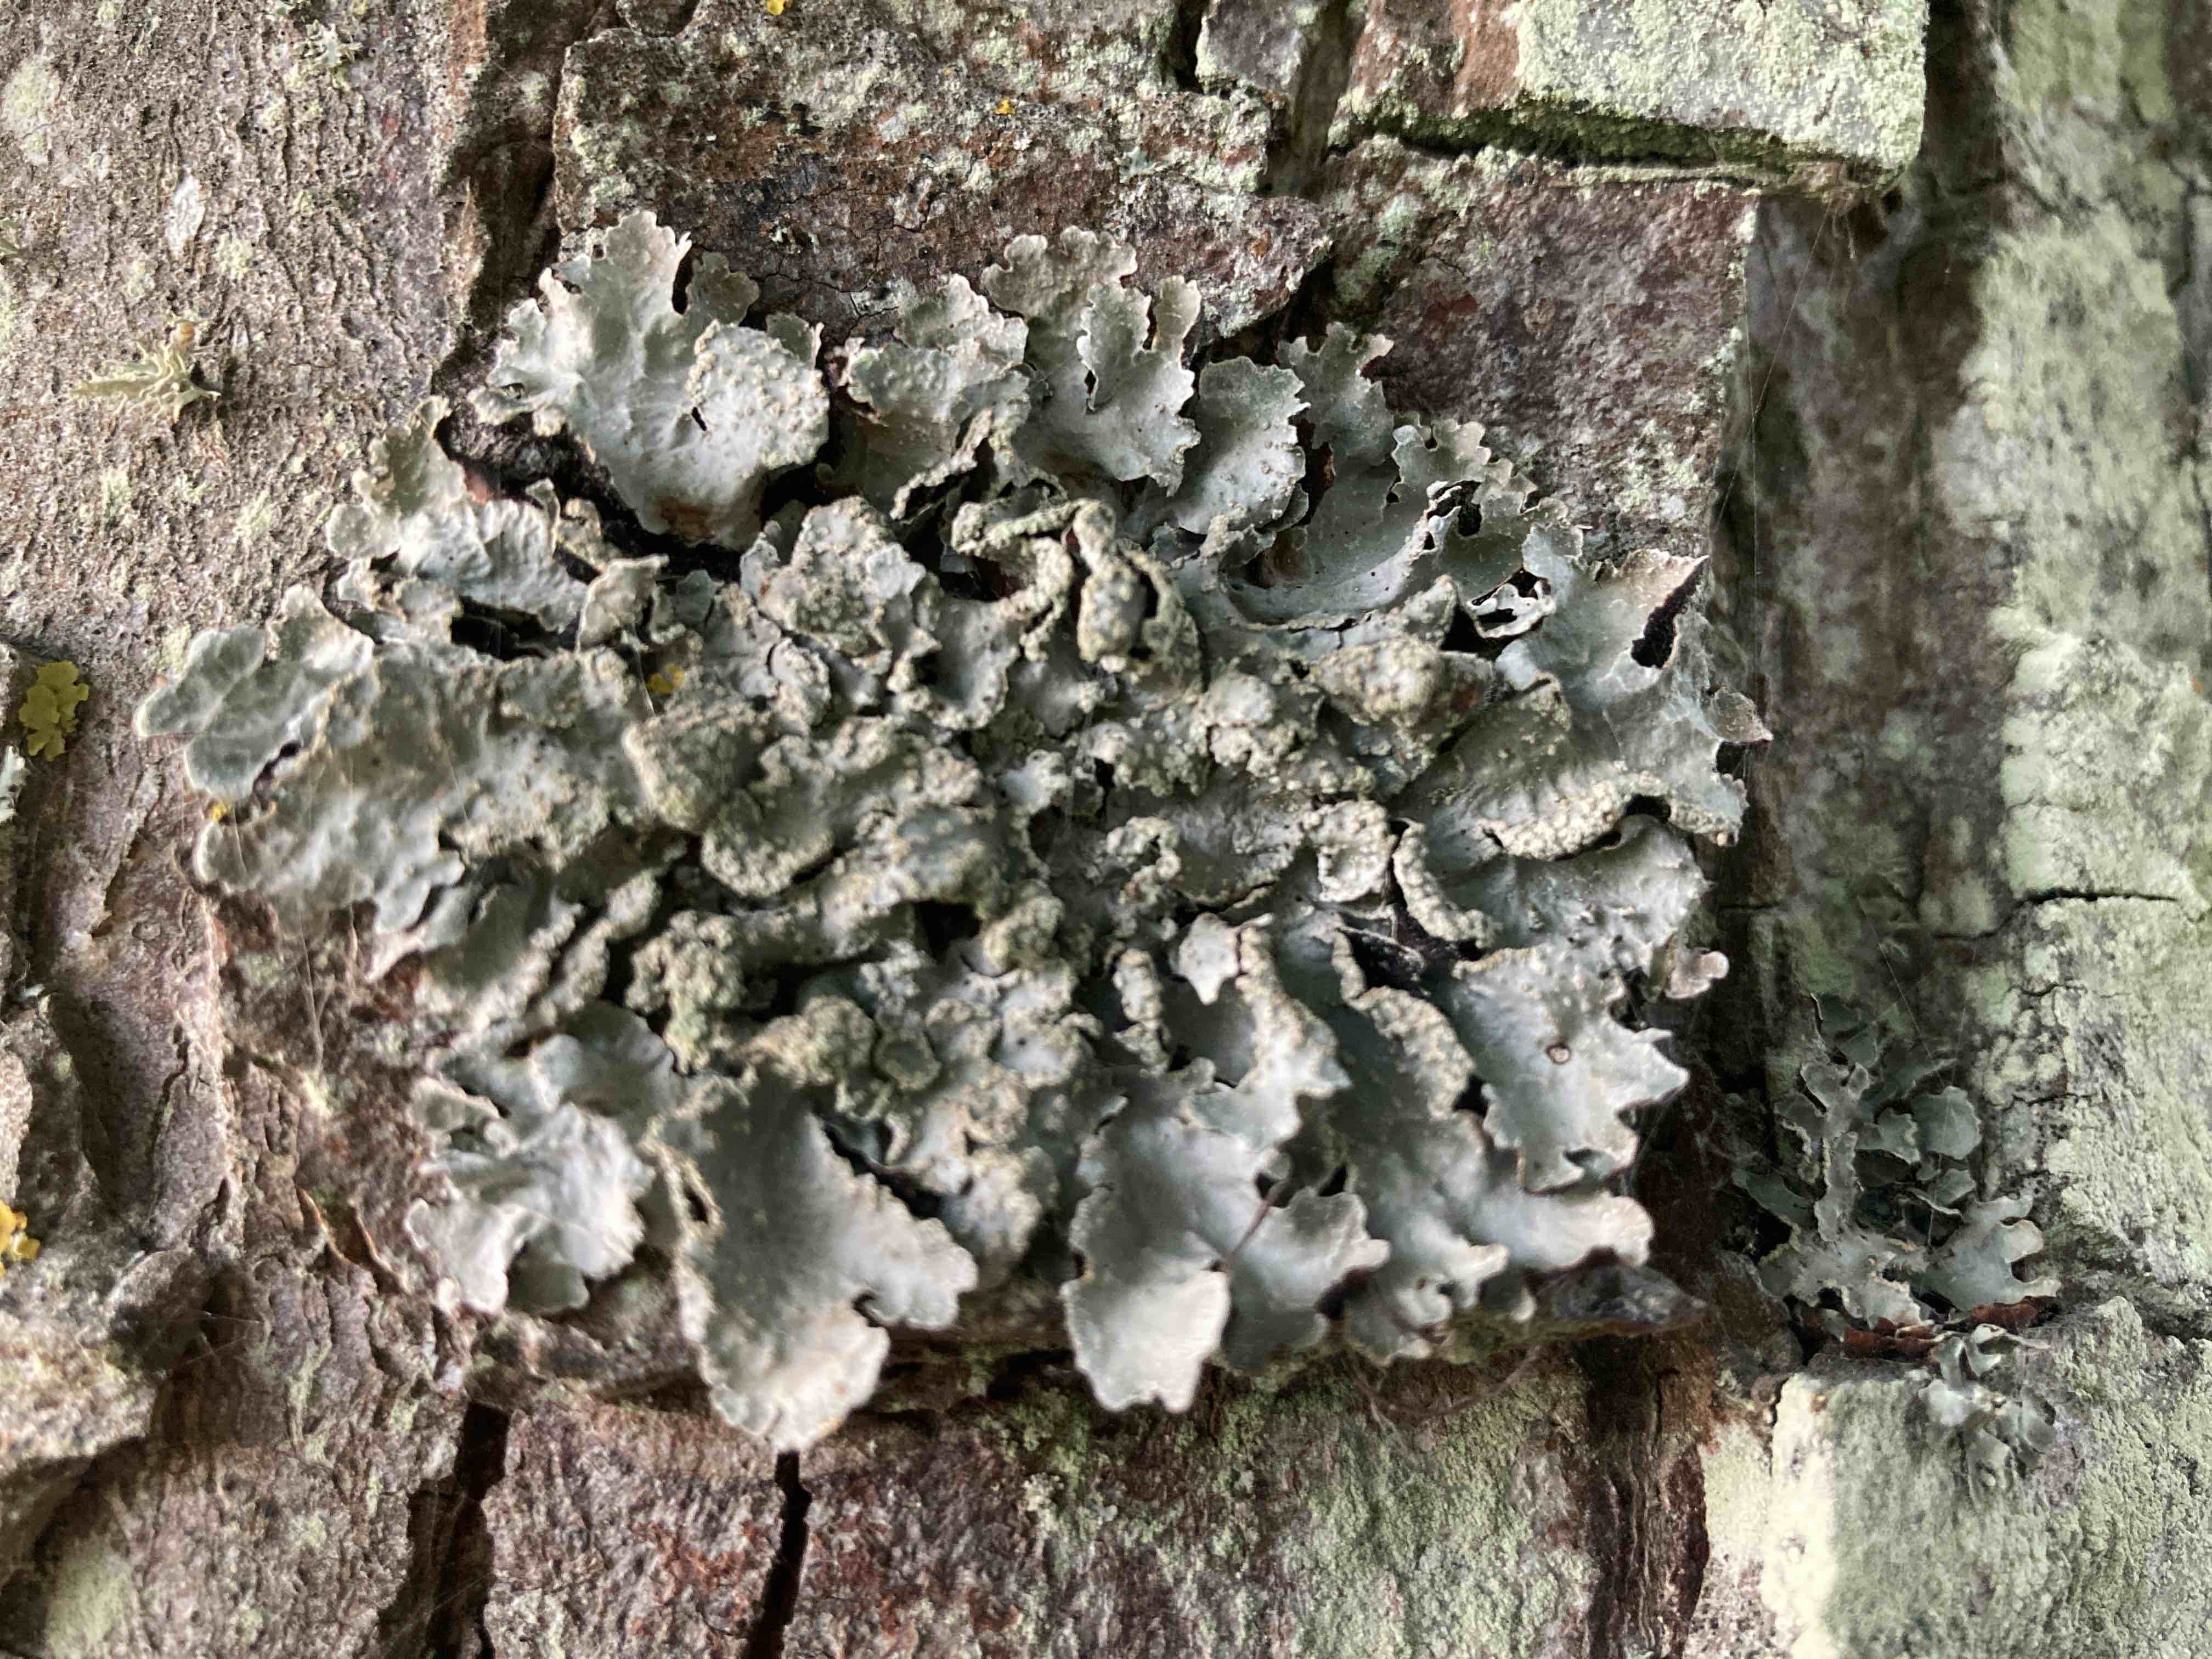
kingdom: Fungi
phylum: Ascomycota
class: Lecanoromycetes
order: Lecanorales
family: Parmeliaceae
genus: Parmelia
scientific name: Parmelia sulcata
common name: rynket skållav
